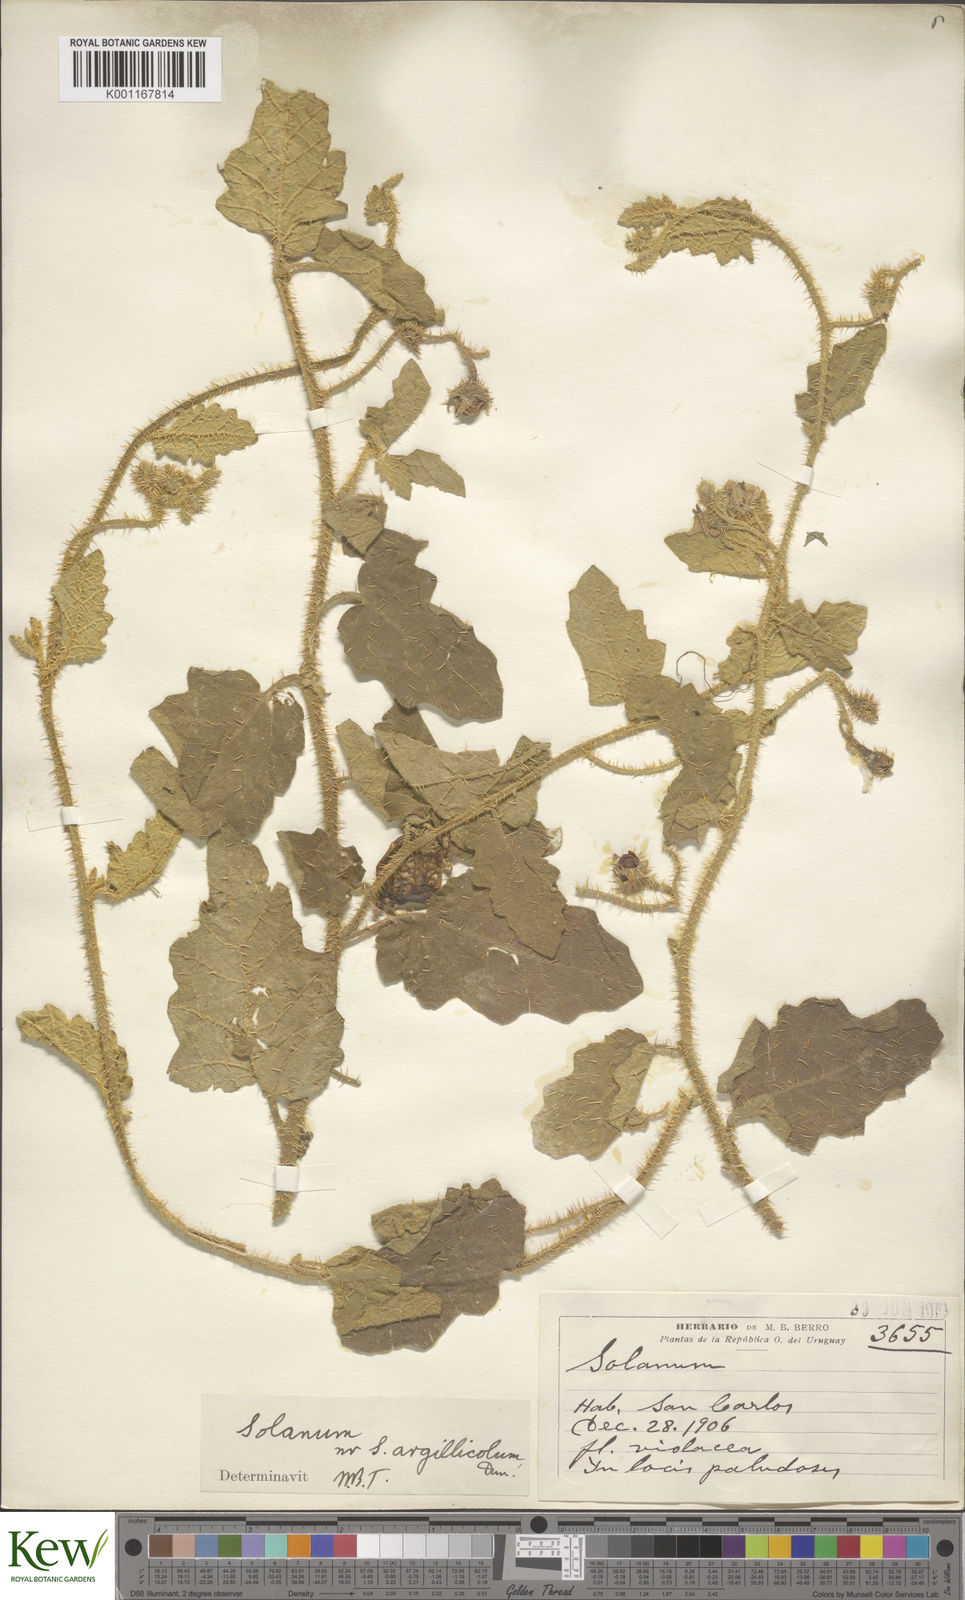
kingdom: Plantae
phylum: Tracheophyta
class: Magnoliopsida
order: Solanales
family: Solanaceae
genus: Solanum
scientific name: Solanum agrarium
